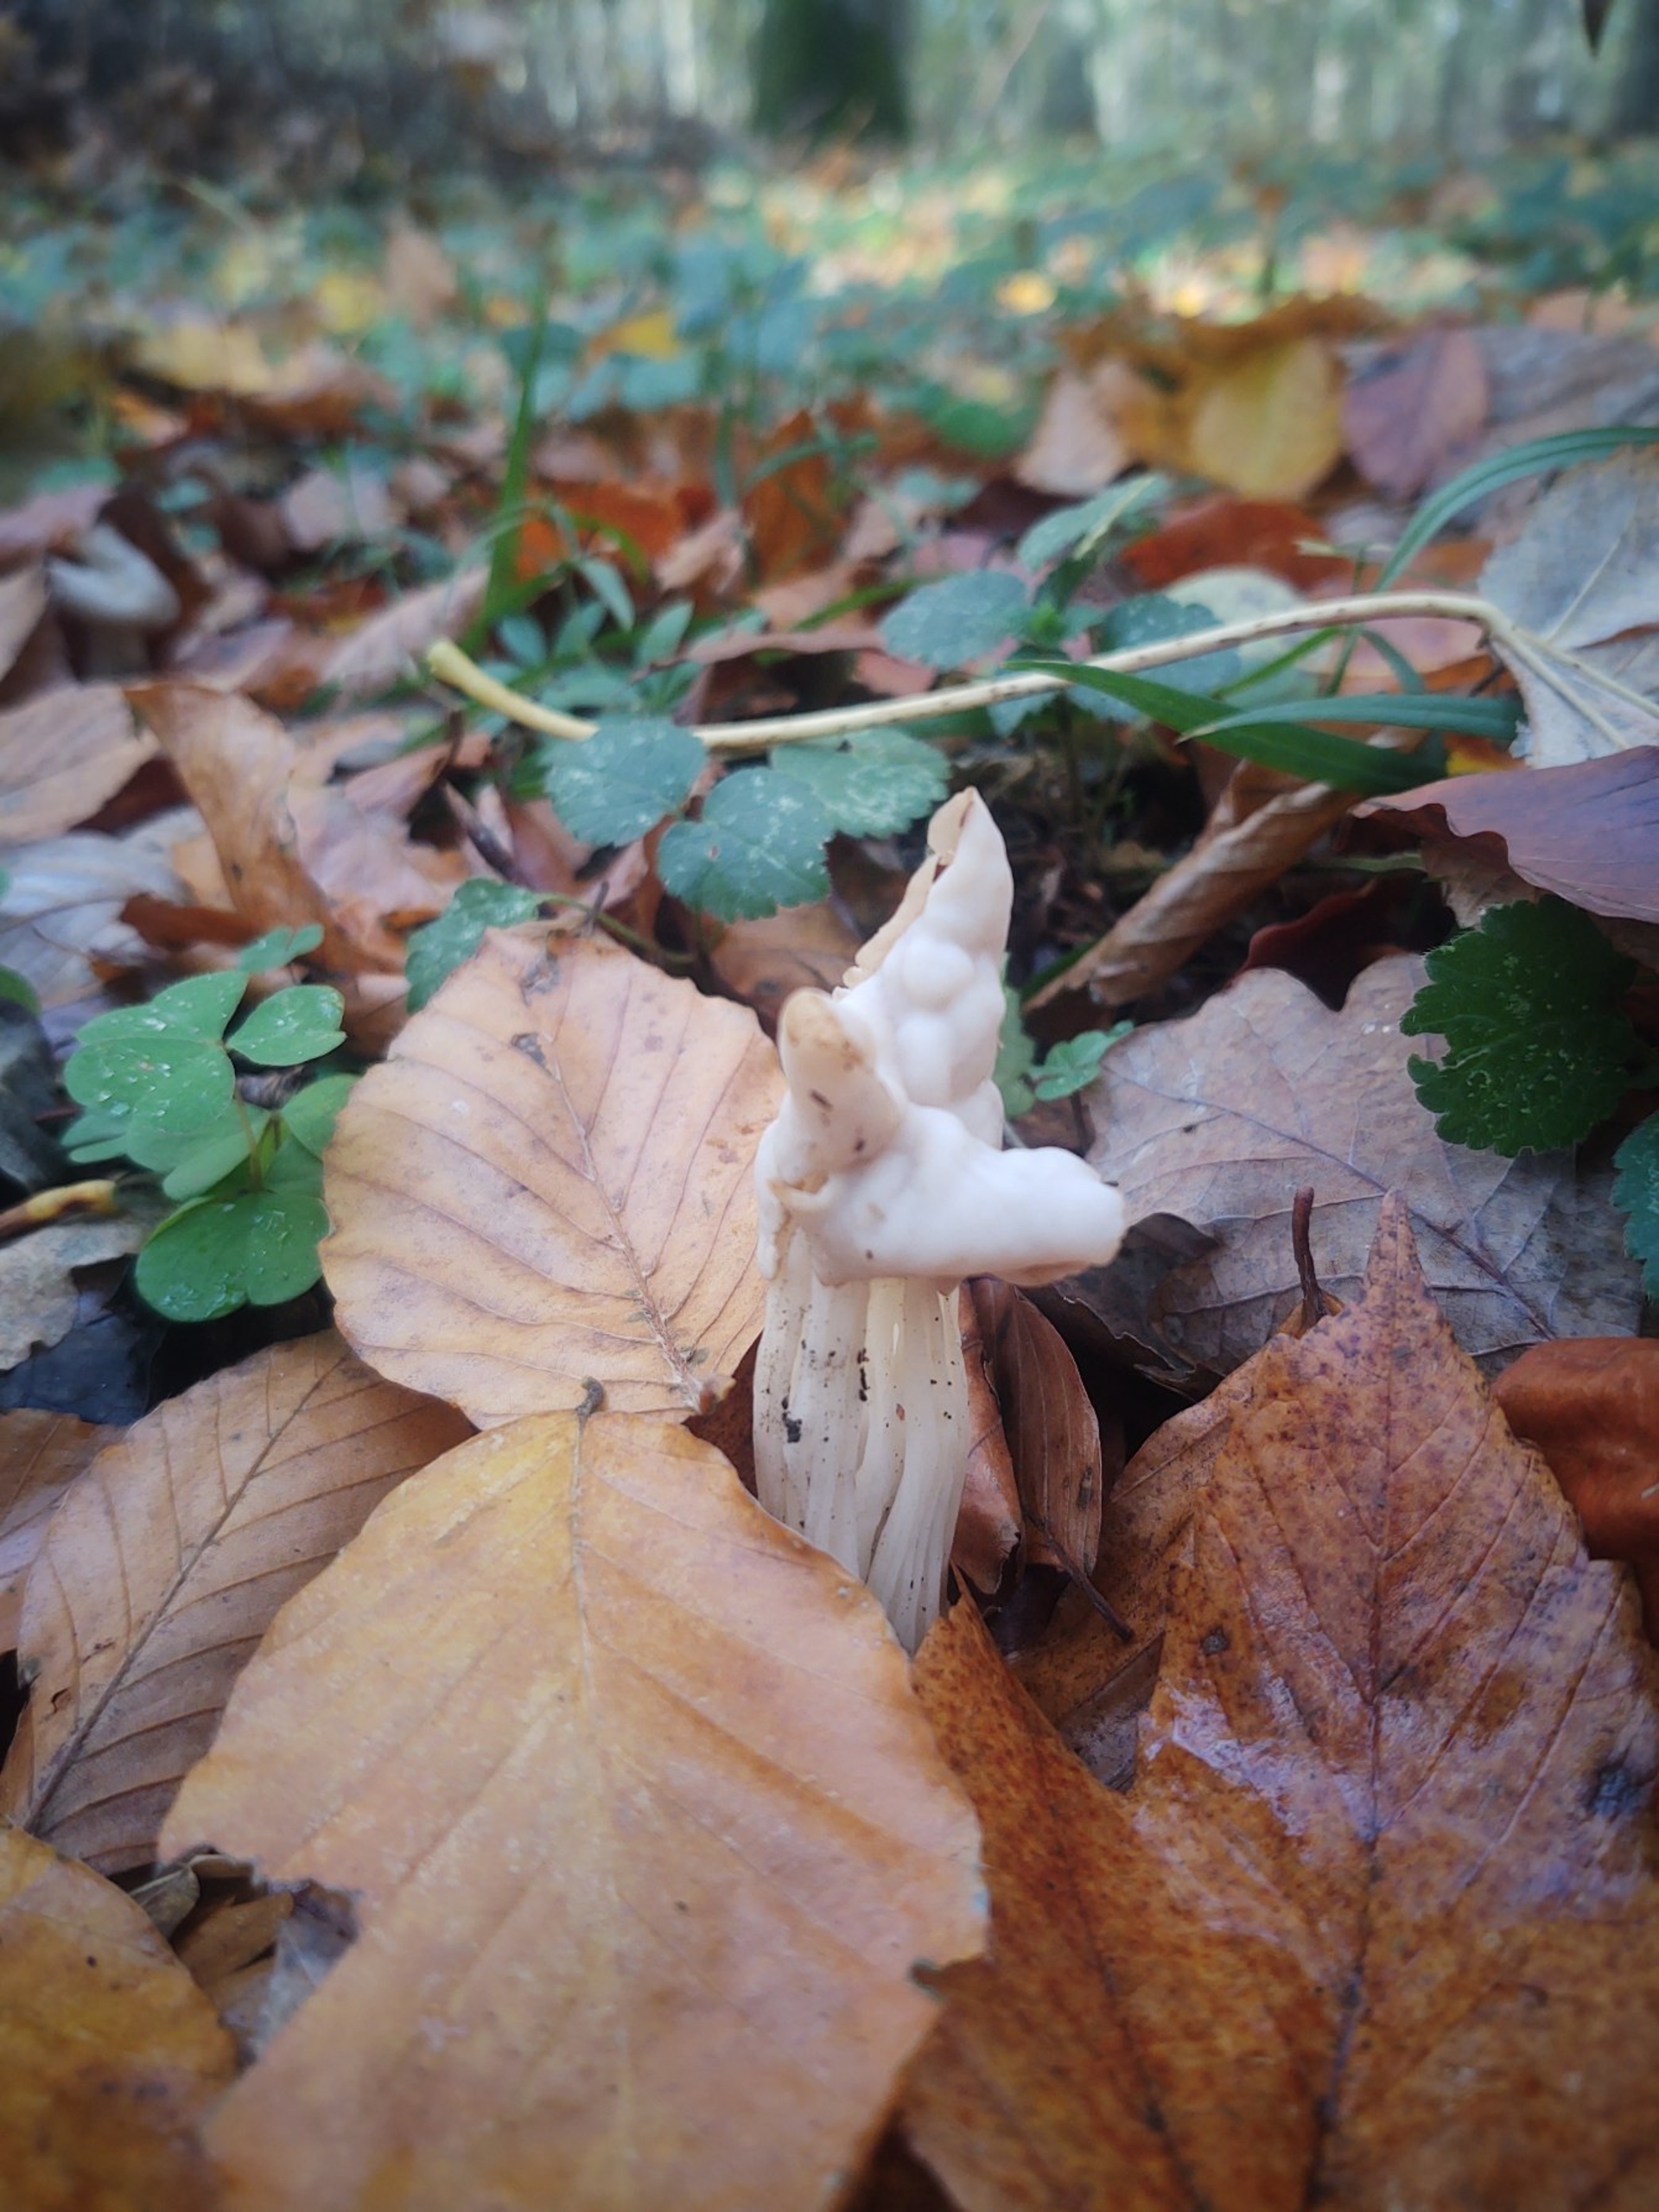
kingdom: Fungi
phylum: Ascomycota
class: Pezizomycetes
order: Pezizales
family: Helvellaceae
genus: Helvella
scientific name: Helvella crispa
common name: Kruset foldhat
